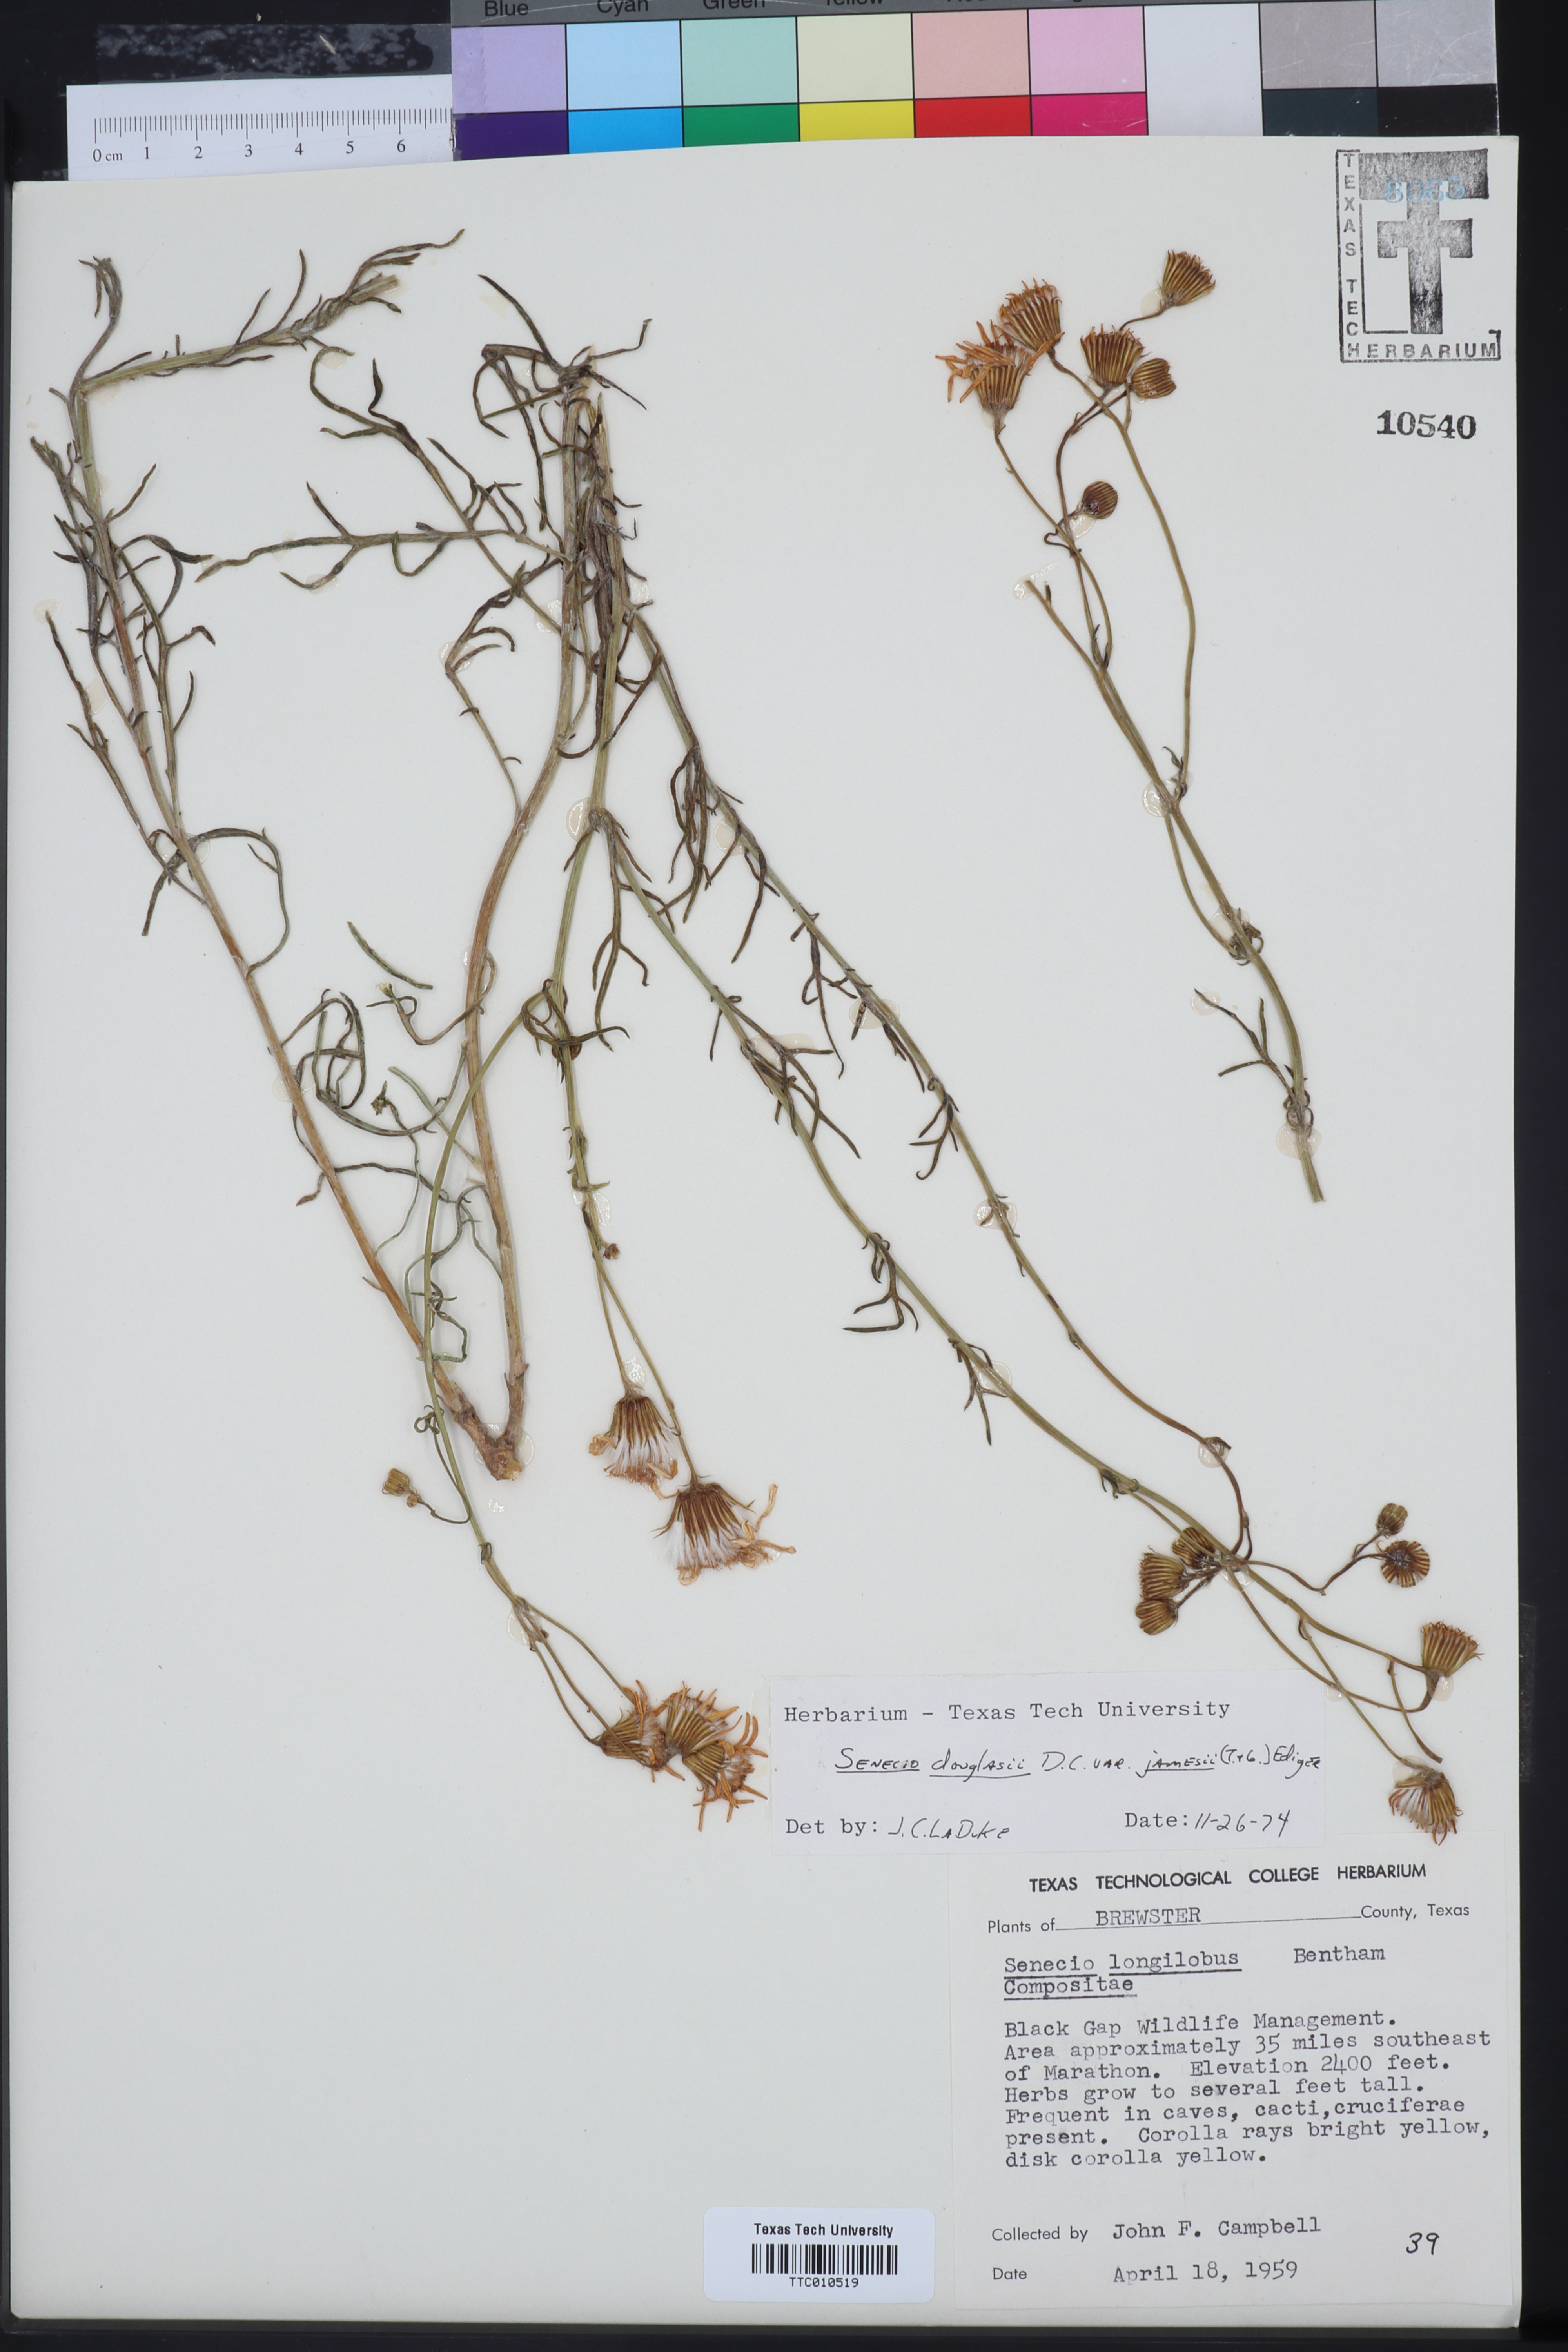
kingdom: Plantae
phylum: Tracheophyta
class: Magnoliopsida
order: Asterales
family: Asteraceae
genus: Senecio
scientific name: Senecio flaccidus
